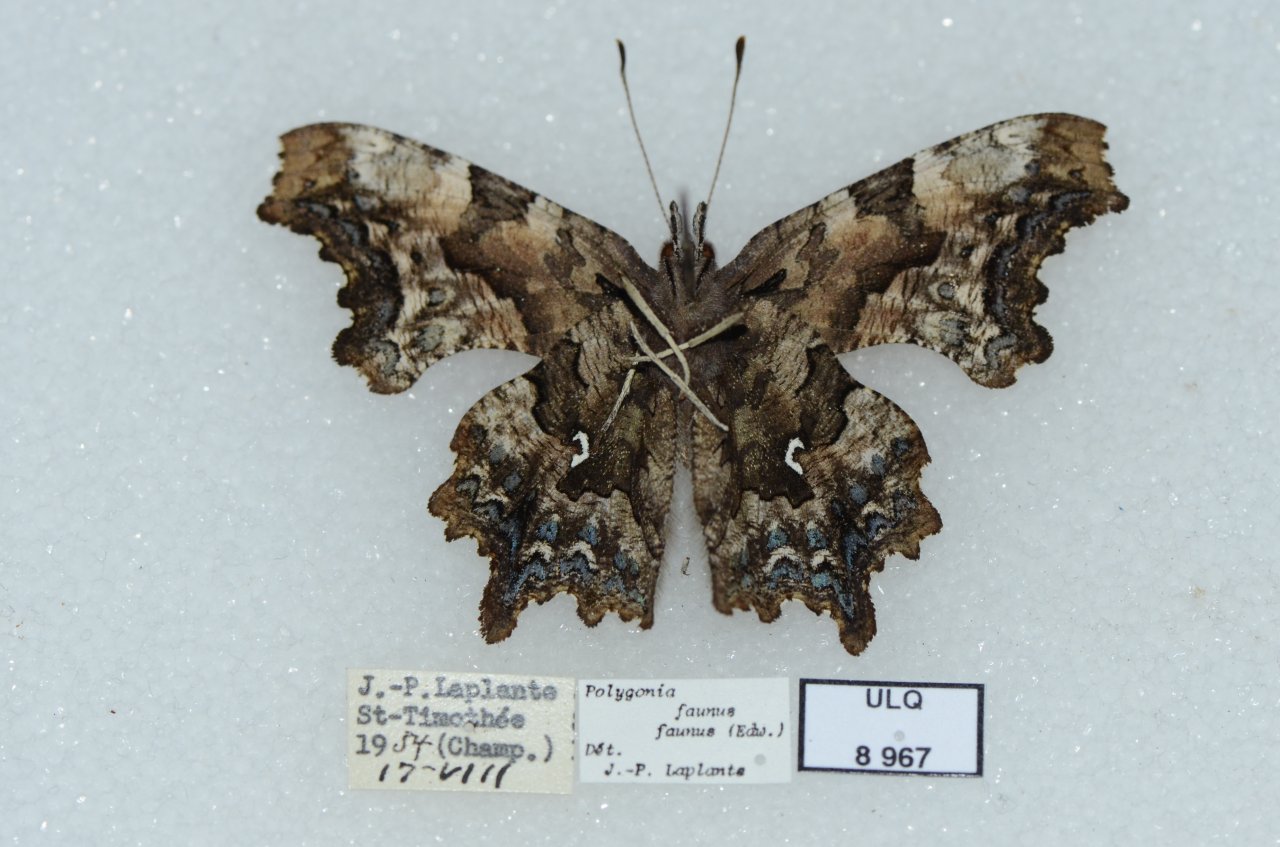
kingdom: Animalia
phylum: Arthropoda
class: Insecta
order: Lepidoptera
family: Nymphalidae
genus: Polygonia
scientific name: Polygonia faunus
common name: Green Comma
